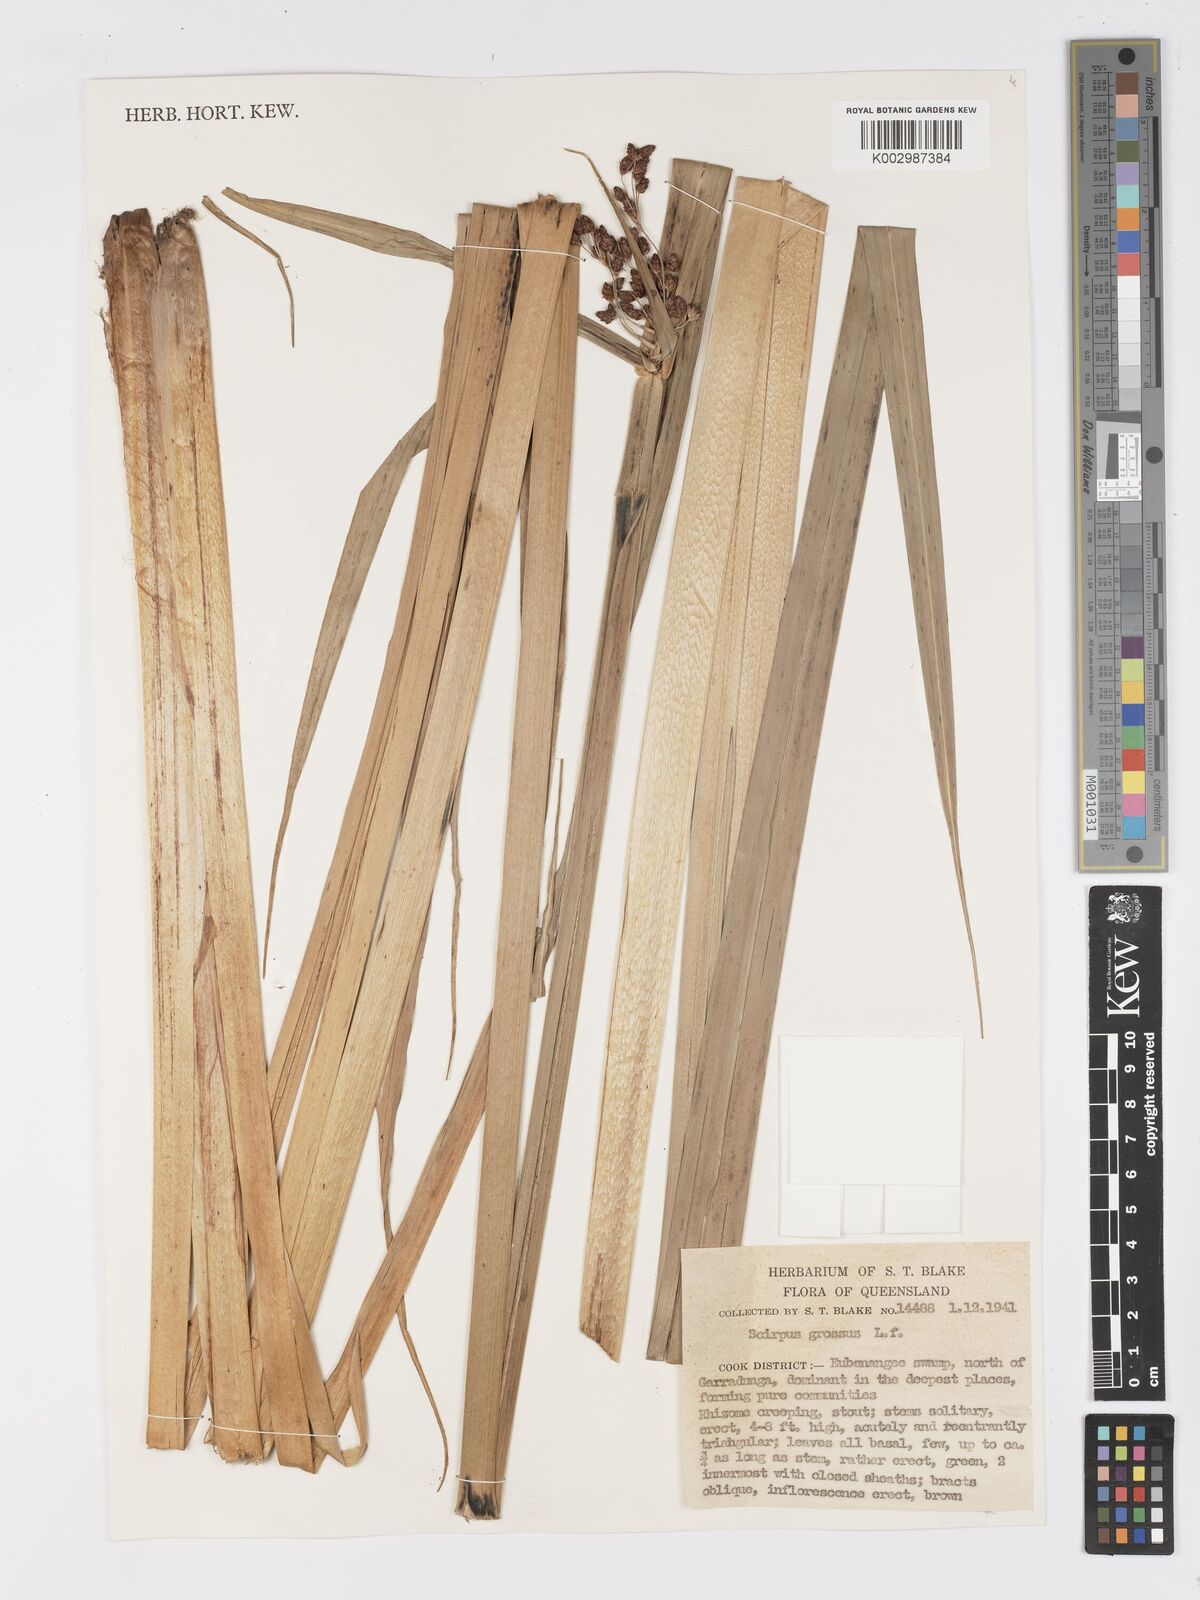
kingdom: Plantae
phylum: Tracheophyta
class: Liliopsida
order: Poales
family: Cyperaceae
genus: Actinoscirpus
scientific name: Actinoscirpus grossus
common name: Giant bur rush
